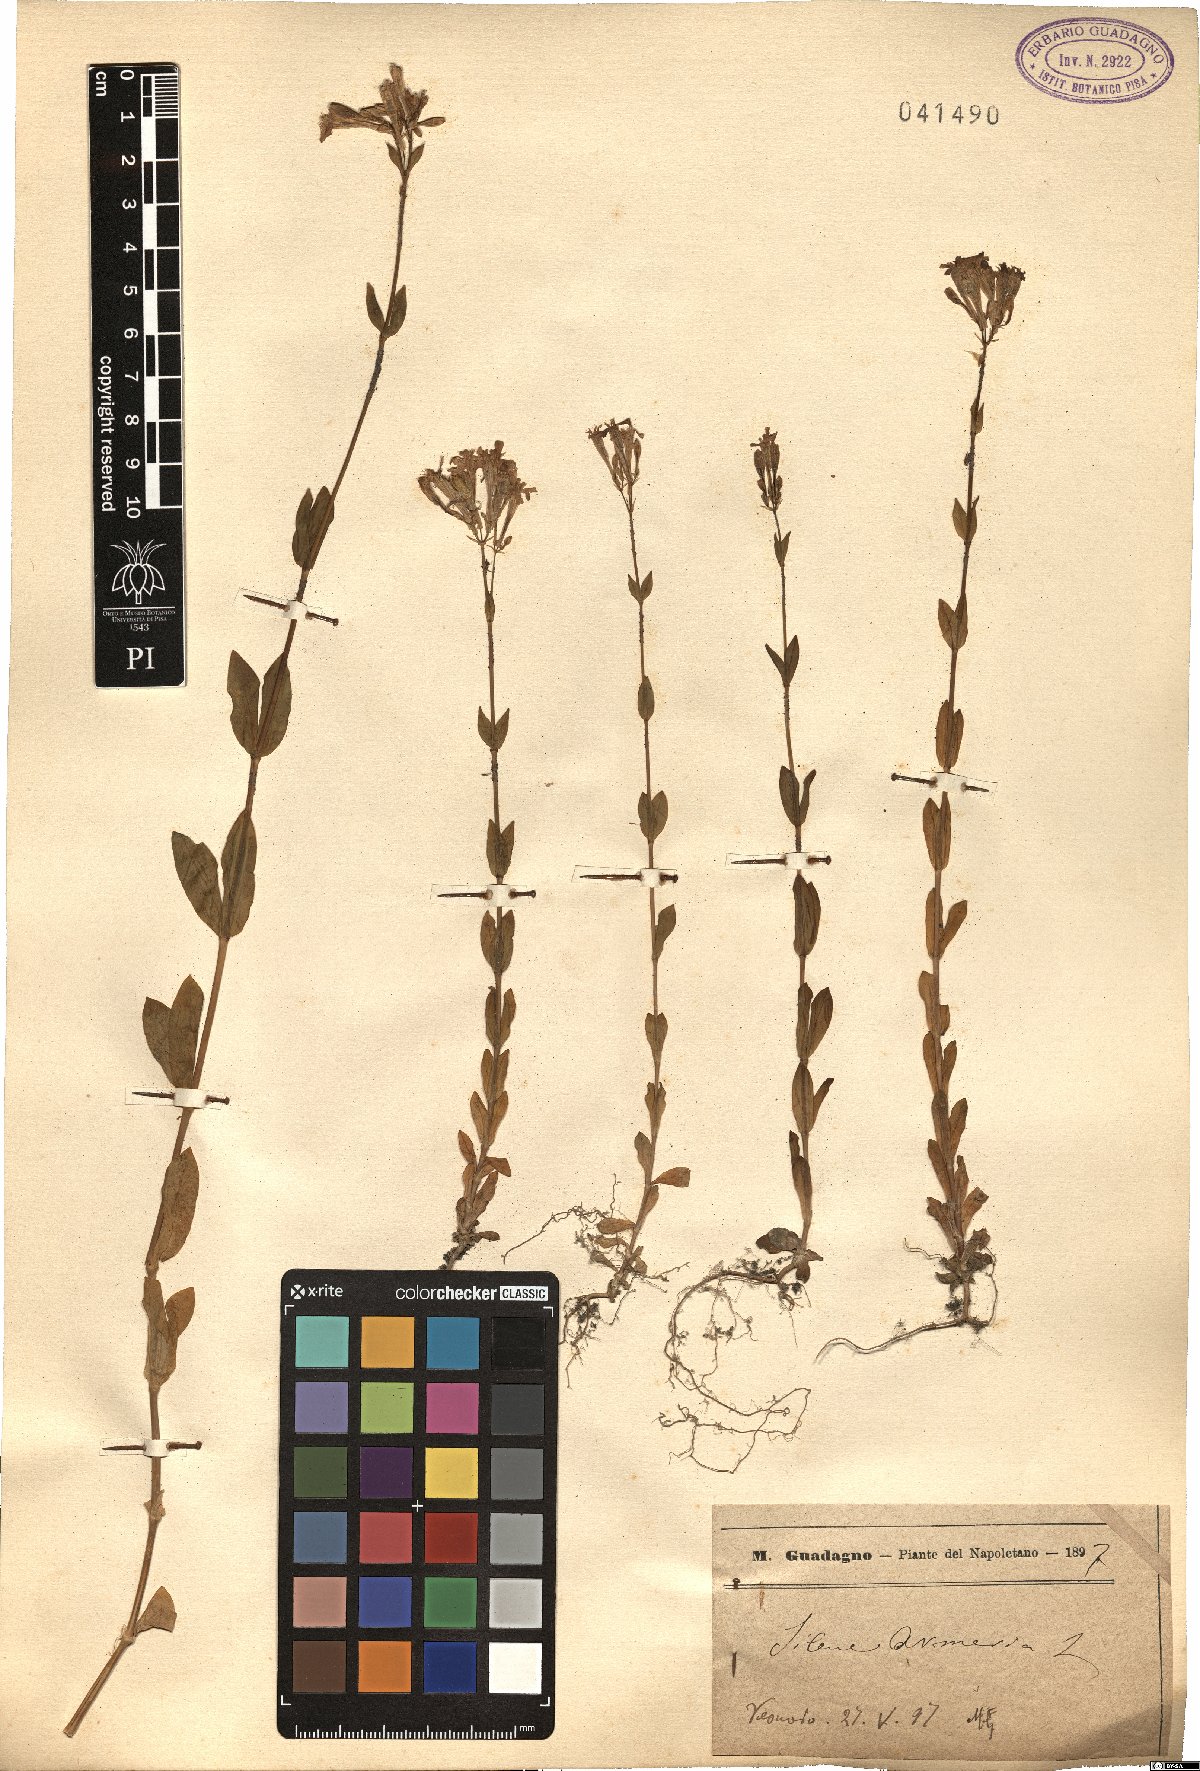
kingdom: Plantae
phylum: Tracheophyta
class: Magnoliopsida
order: Caryophyllales
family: Caryophyllaceae
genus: Atocion
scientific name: Atocion armeria
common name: Sweet william catchfly
